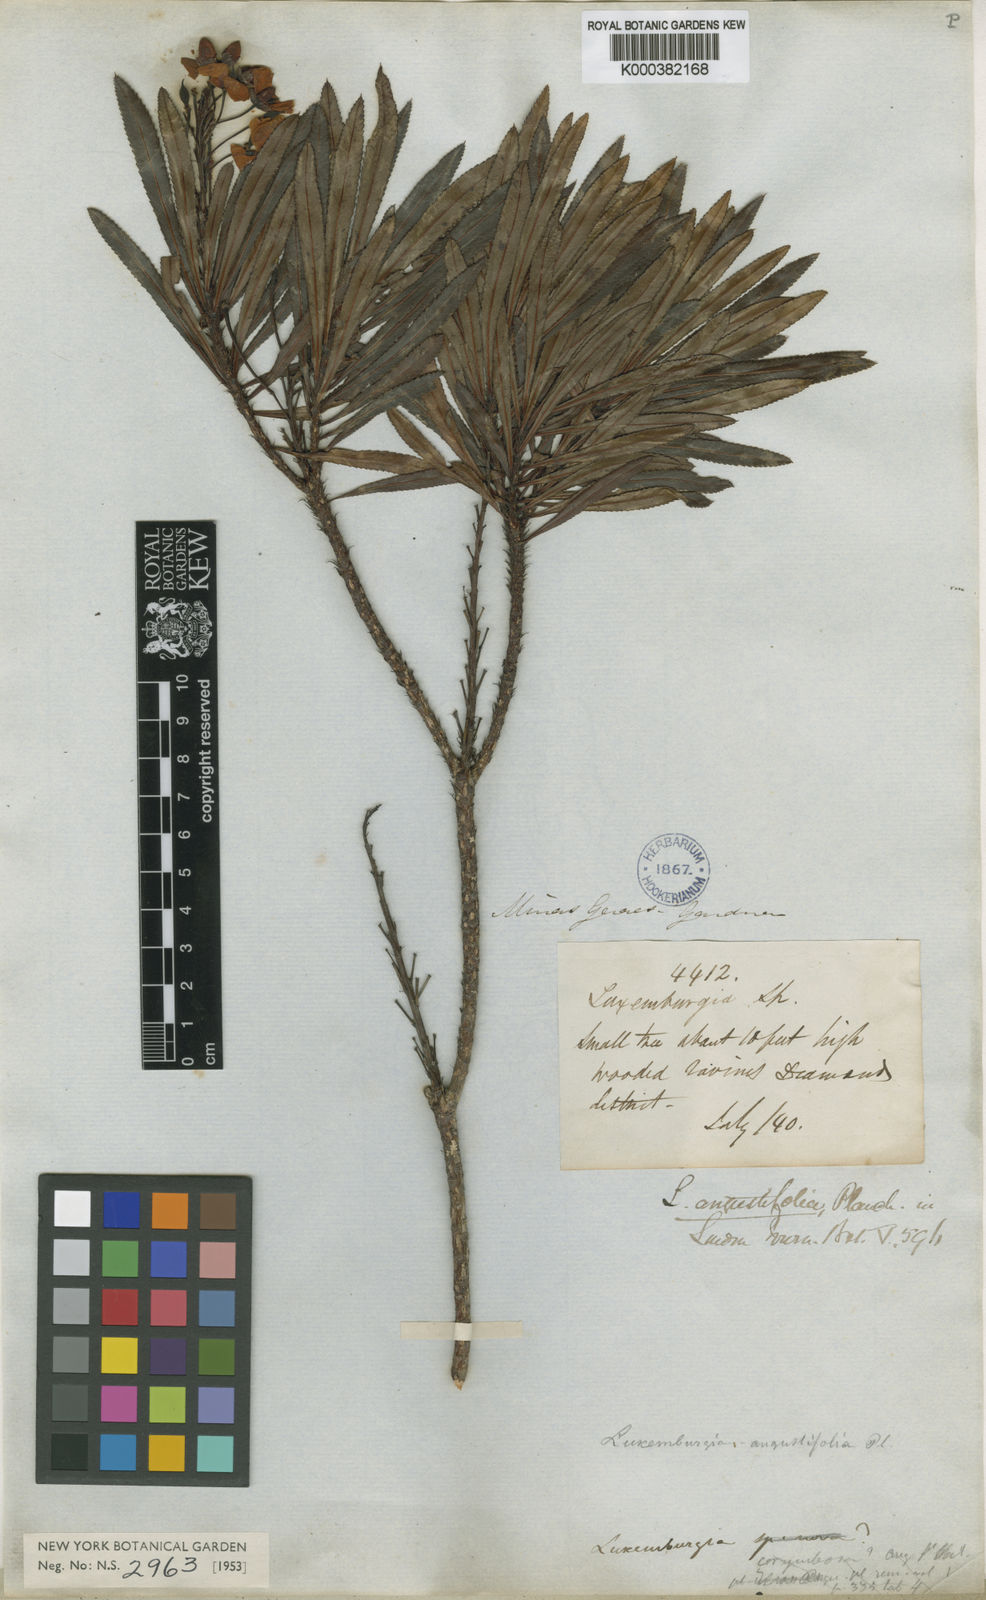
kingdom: Plantae
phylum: Tracheophyta
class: Magnoliopsida
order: Malpighiales
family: Ochnaceae
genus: Luxemburgia
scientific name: Luxemburgia angustifolia
